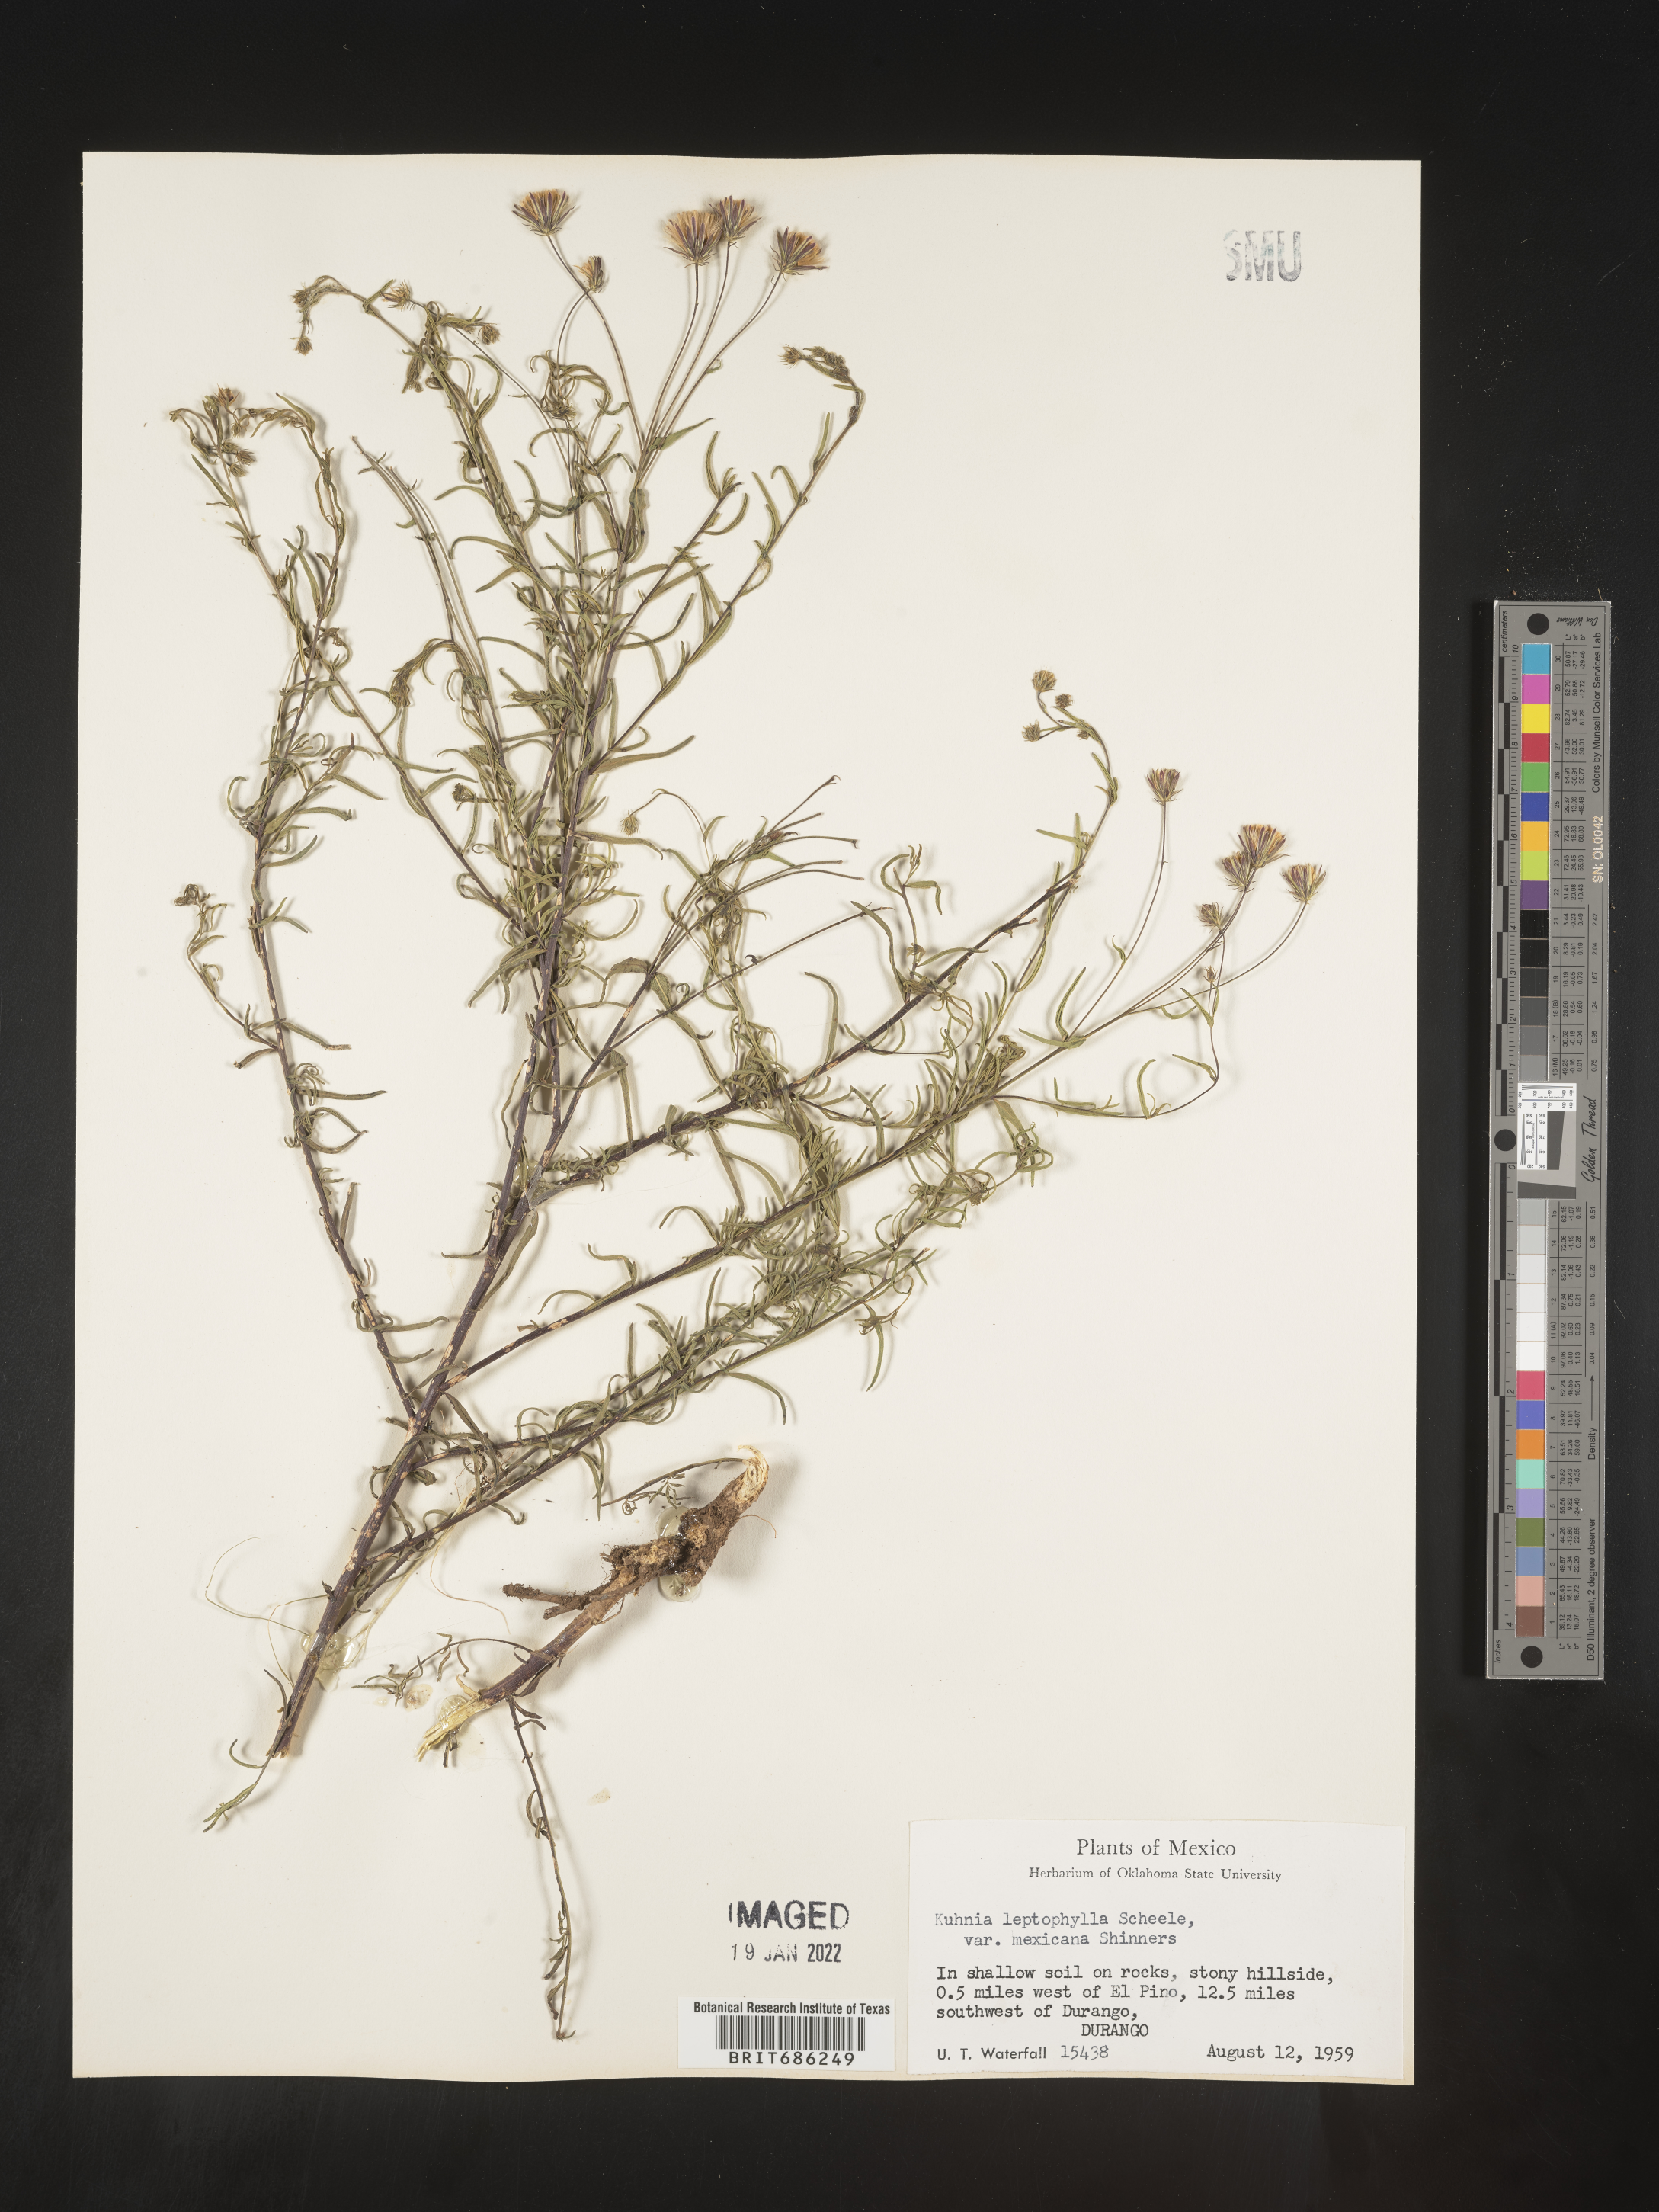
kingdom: Plantae
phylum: Tracheophyta
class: Magnoliopsida
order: Asterales
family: Asteraceae
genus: Brickellia
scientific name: Brickellia
